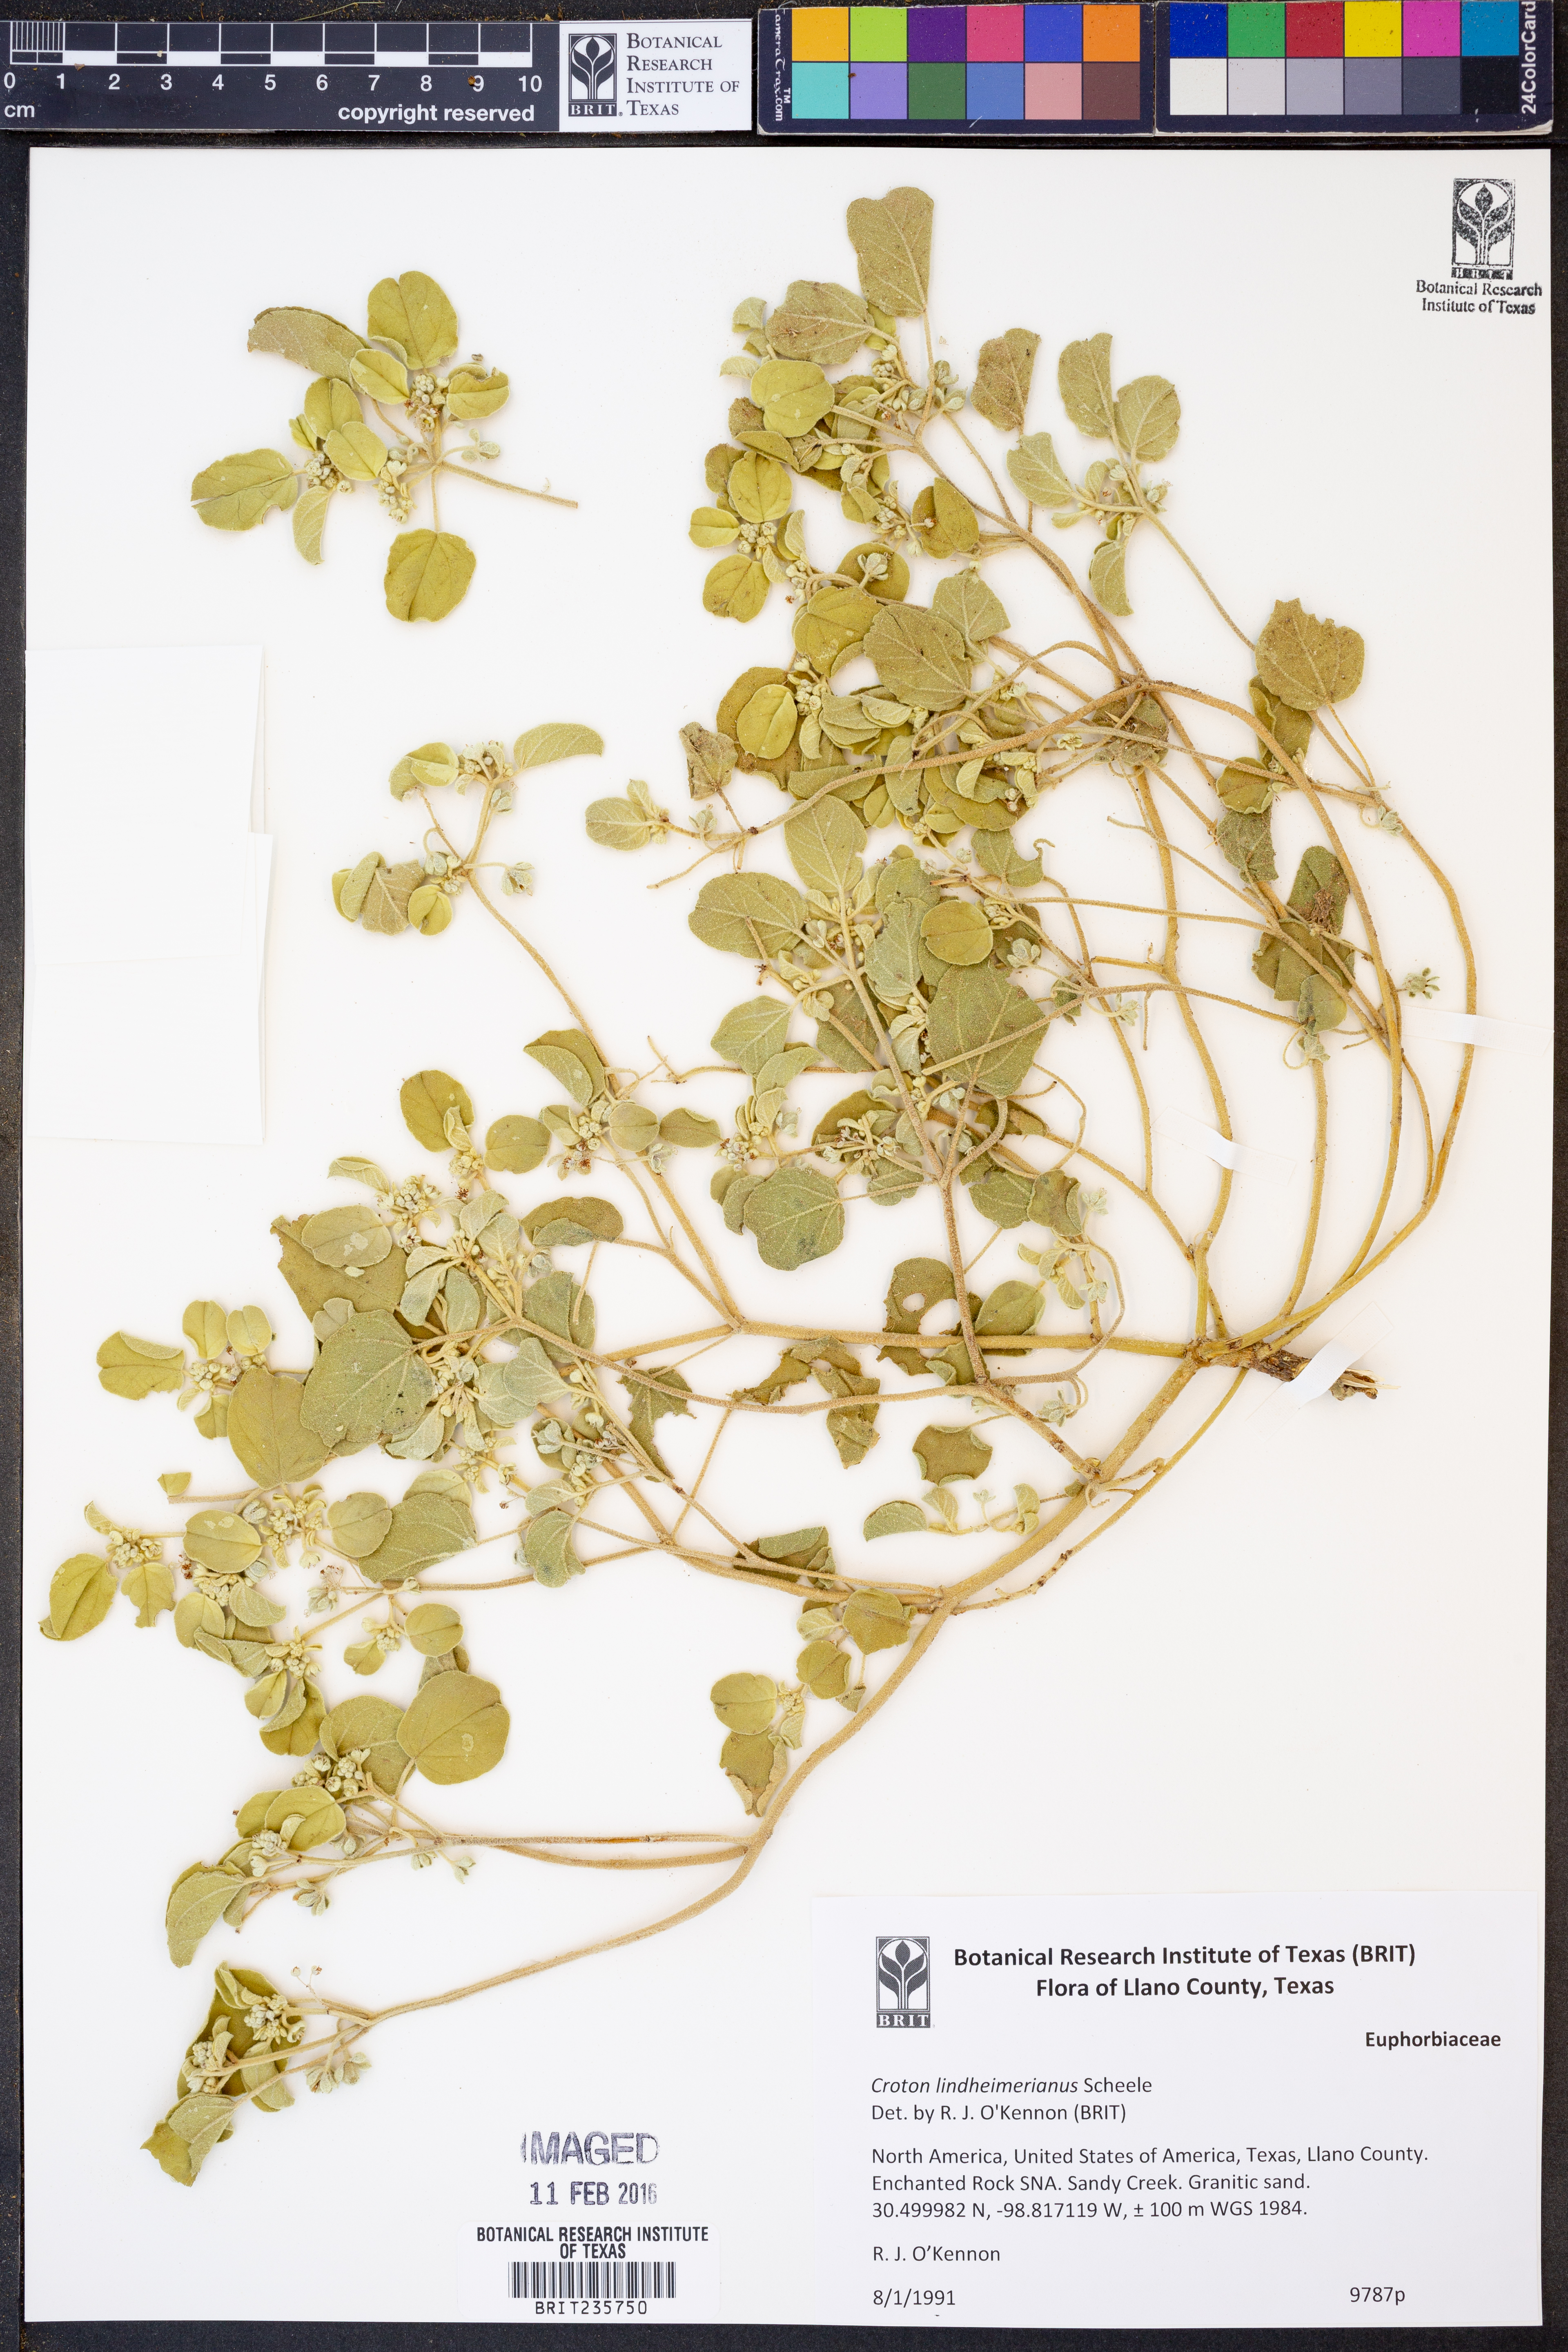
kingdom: Plantae
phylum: Tracheophyta
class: Magnoliopsida
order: Malpighiales
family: Euphorbiaceae
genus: Croton
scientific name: Croton lindheimerianus
